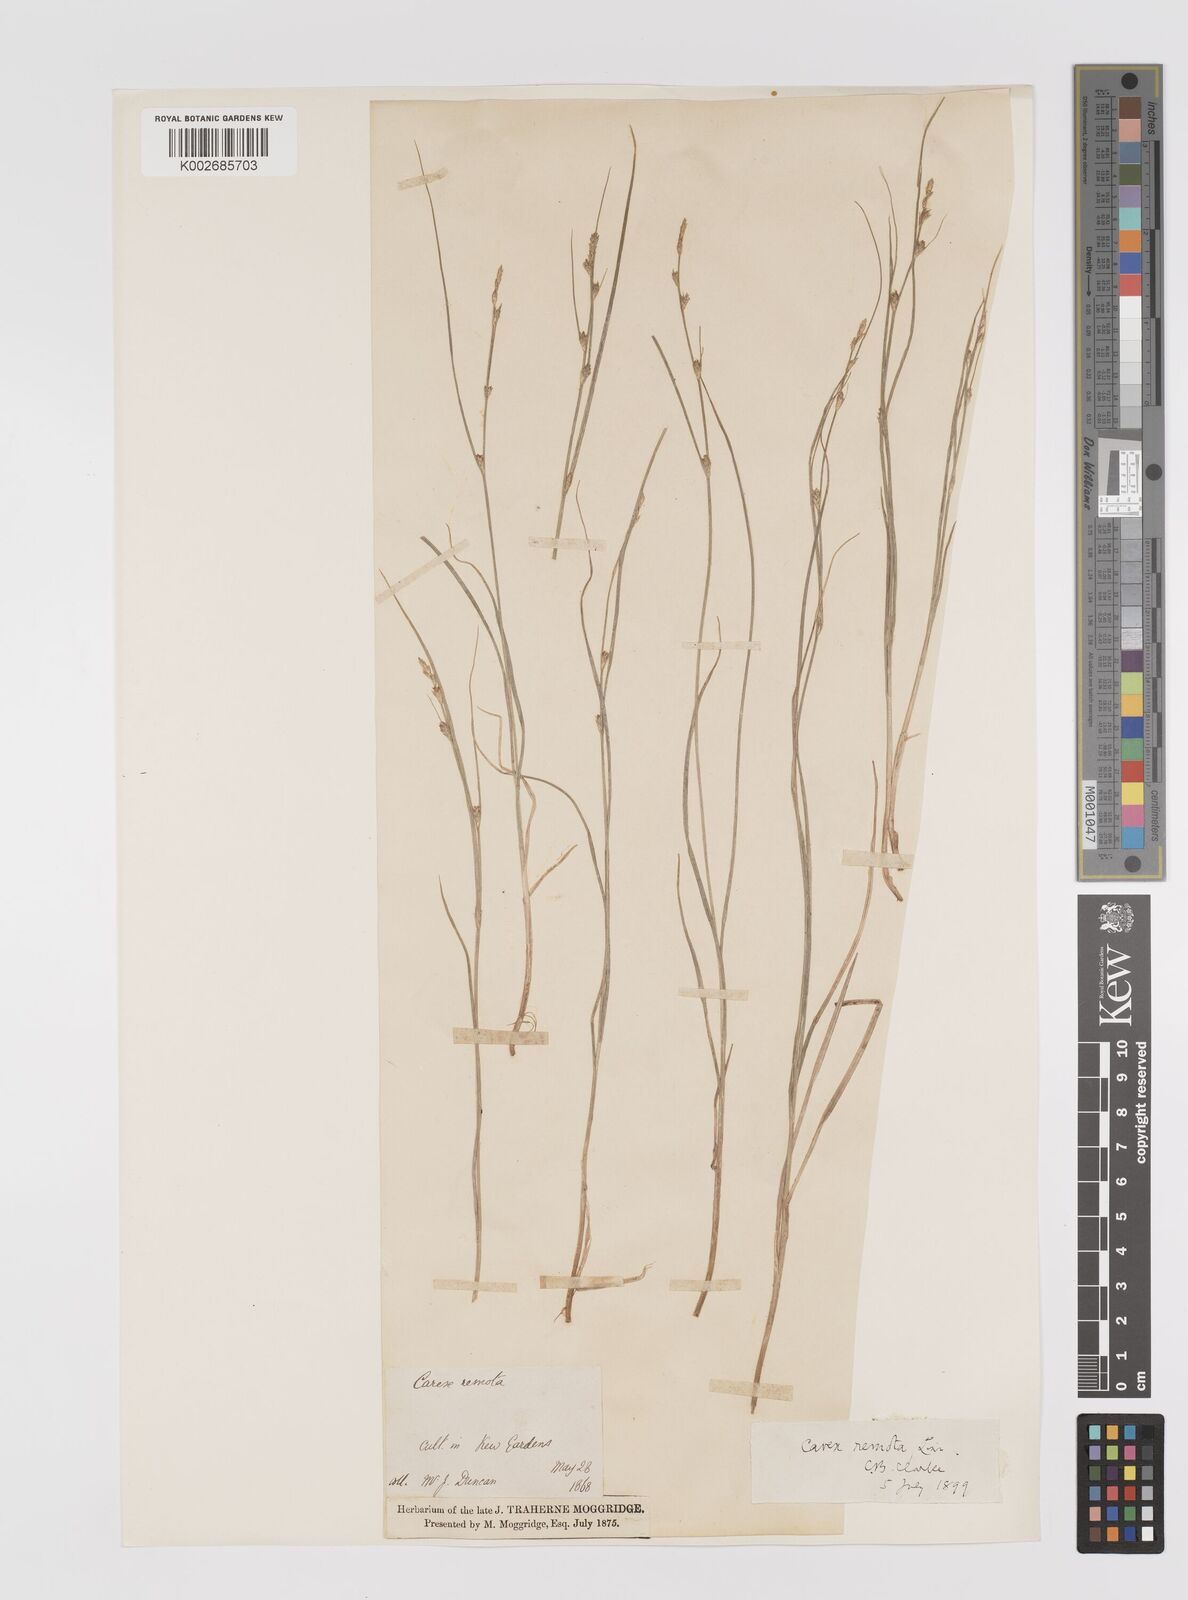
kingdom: Plantae
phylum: Tracheophyta
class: Liliopsida
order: Poales
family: Cyperaceae
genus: Carex
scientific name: Carex remota
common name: Remote sedge
